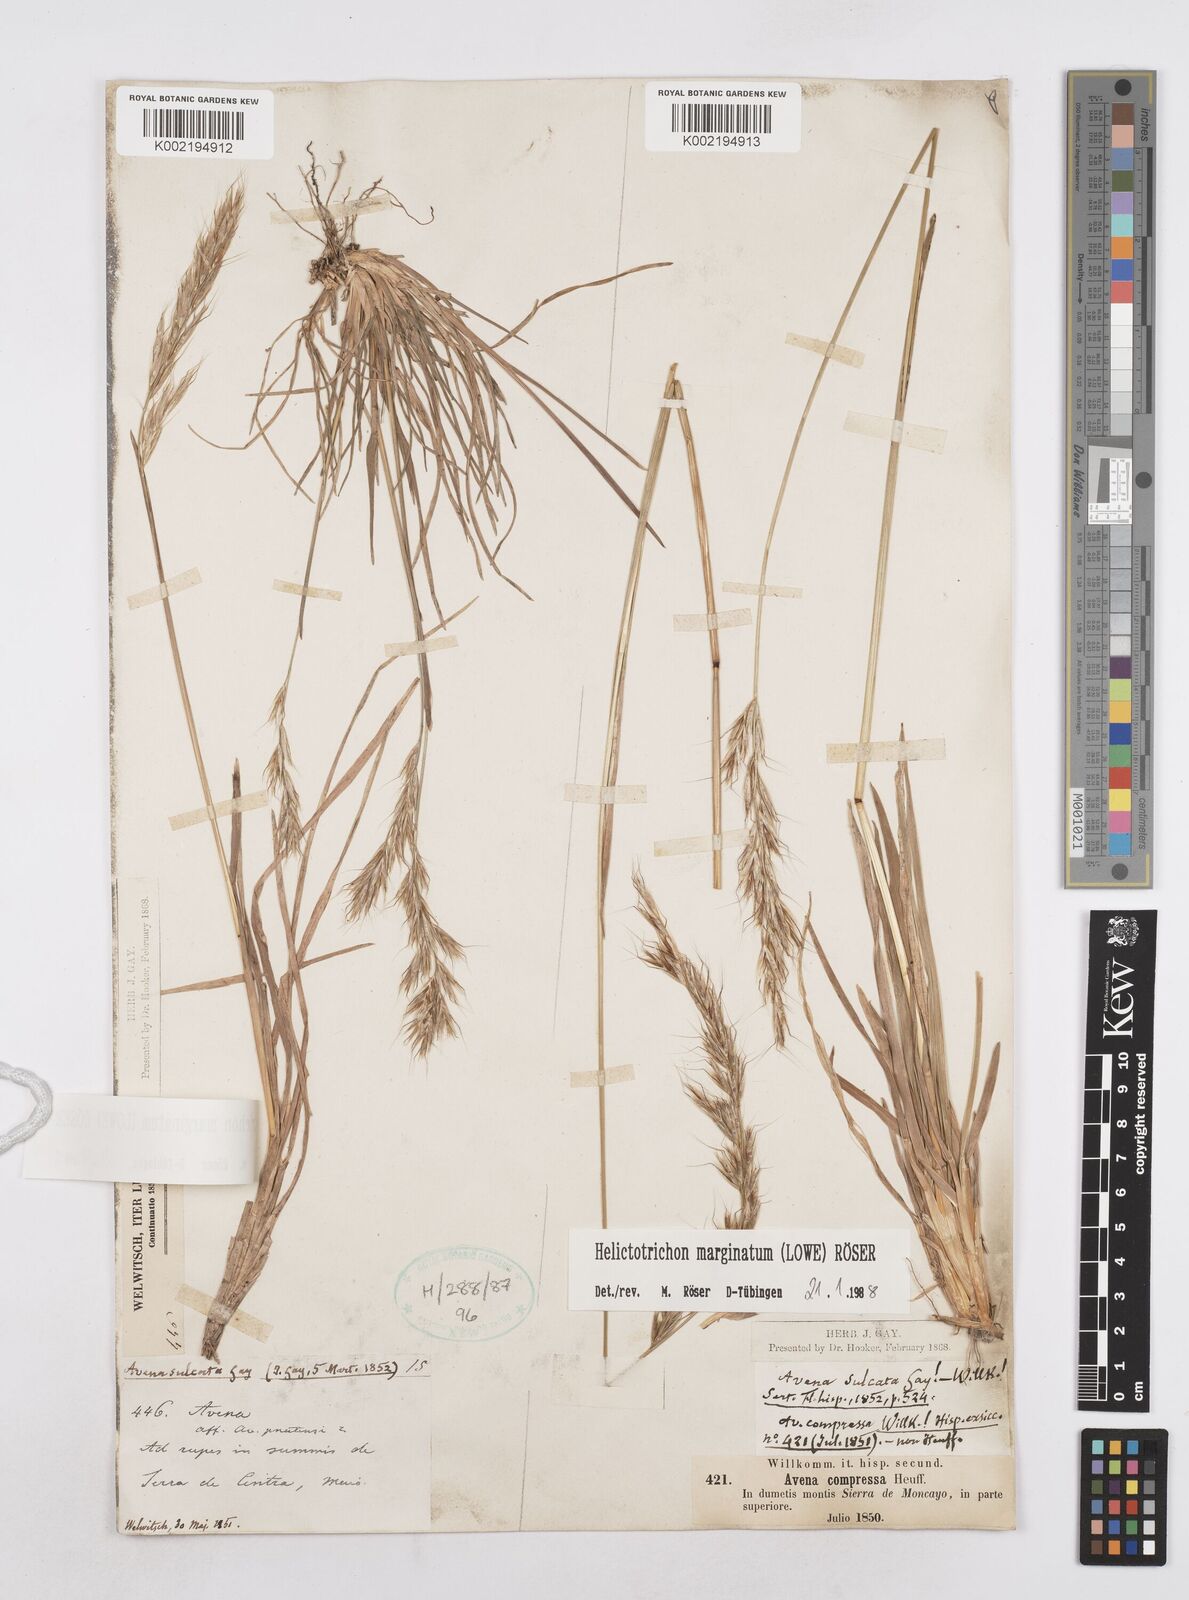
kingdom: Plantae
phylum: Tracheophyta
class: Liliopsida
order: Poales
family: Poaceae
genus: Helictotrichon
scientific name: Helictotrichon
